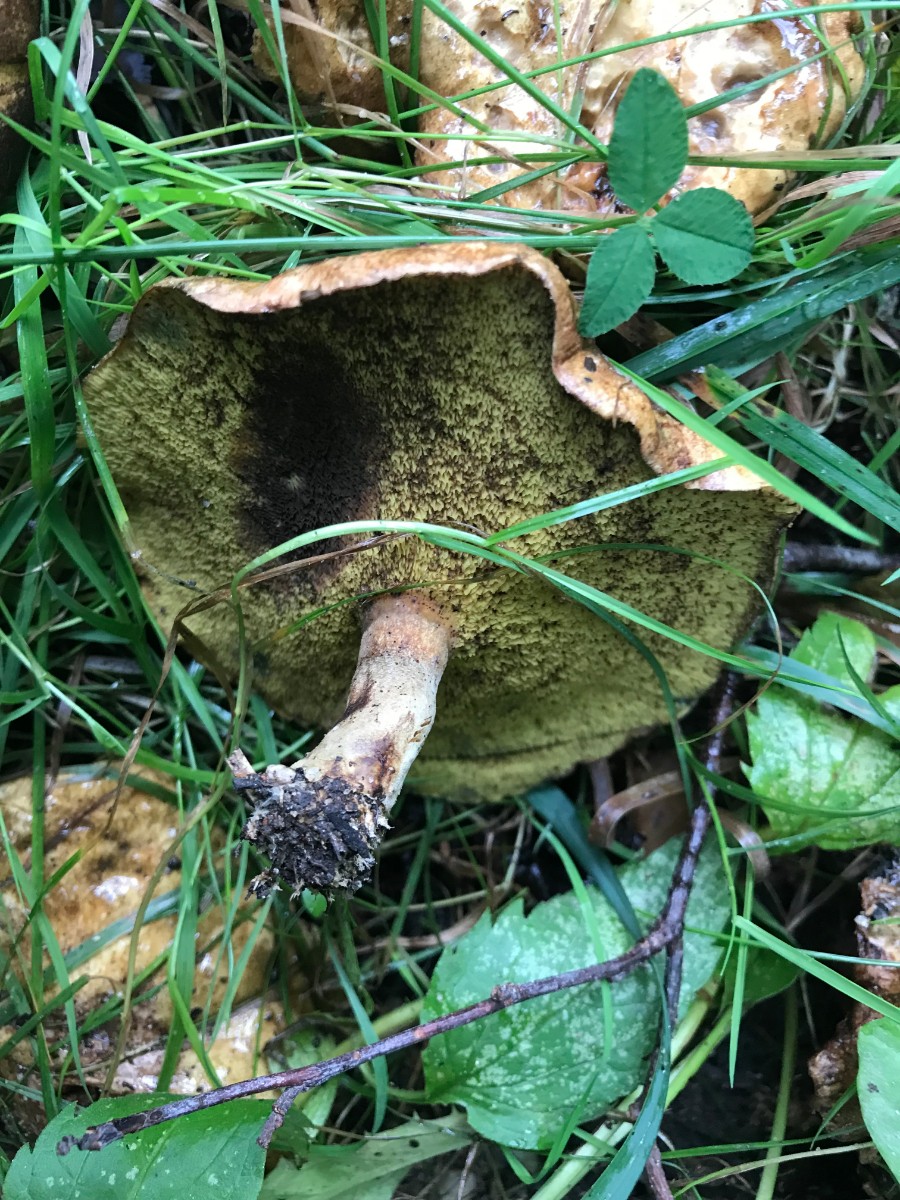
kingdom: Fungi
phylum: Basidiomycota
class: Agaricomycetes
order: Boletales
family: Paxillaceae
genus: Gyrodon
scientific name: Gyrodon lividus
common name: ellerørhat
